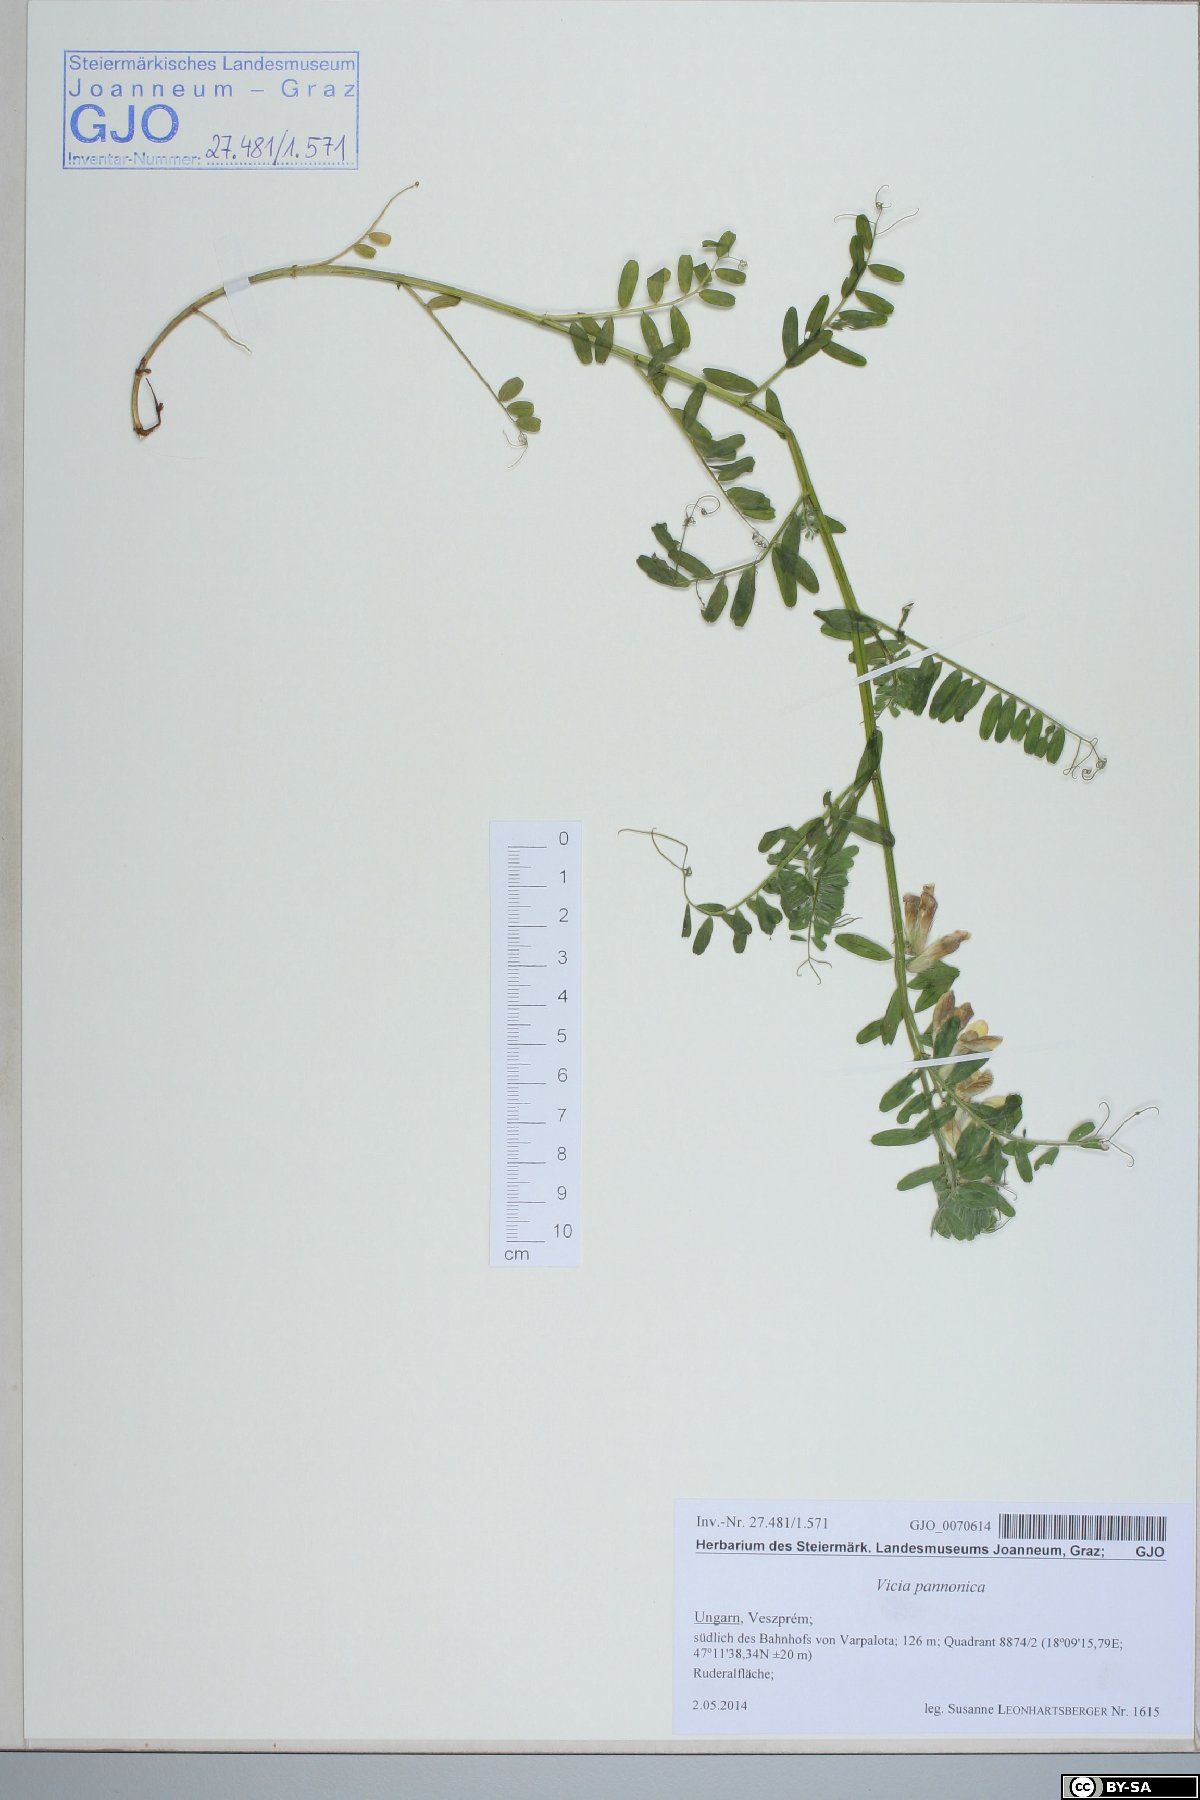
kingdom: Plantae
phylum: Tracheophyta
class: Magnoliopsida
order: Fabales
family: Fabaceae
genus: Vicia
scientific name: Vicia pannonica
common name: Hungarian vetch
